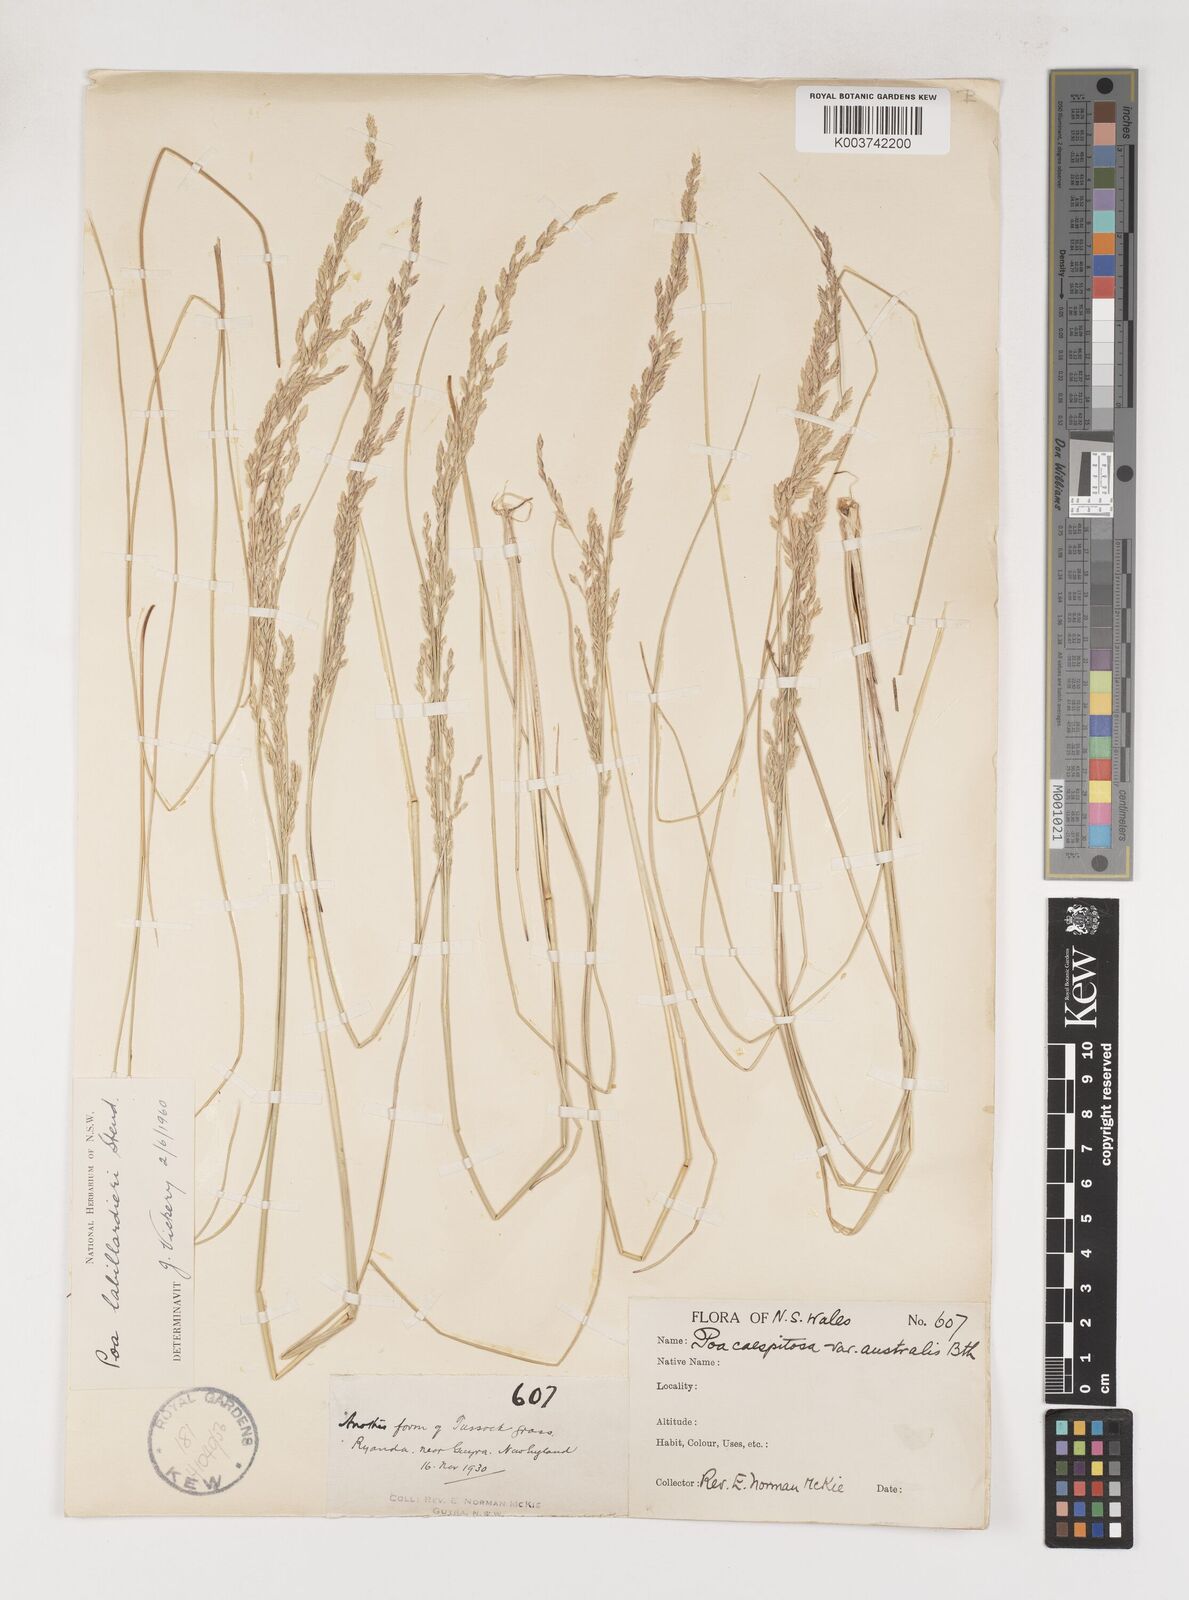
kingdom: Plantae
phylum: Tracheophyta
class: Liliopsida
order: Poales
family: Poaceae
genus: Poa
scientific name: Poa labillardierei
